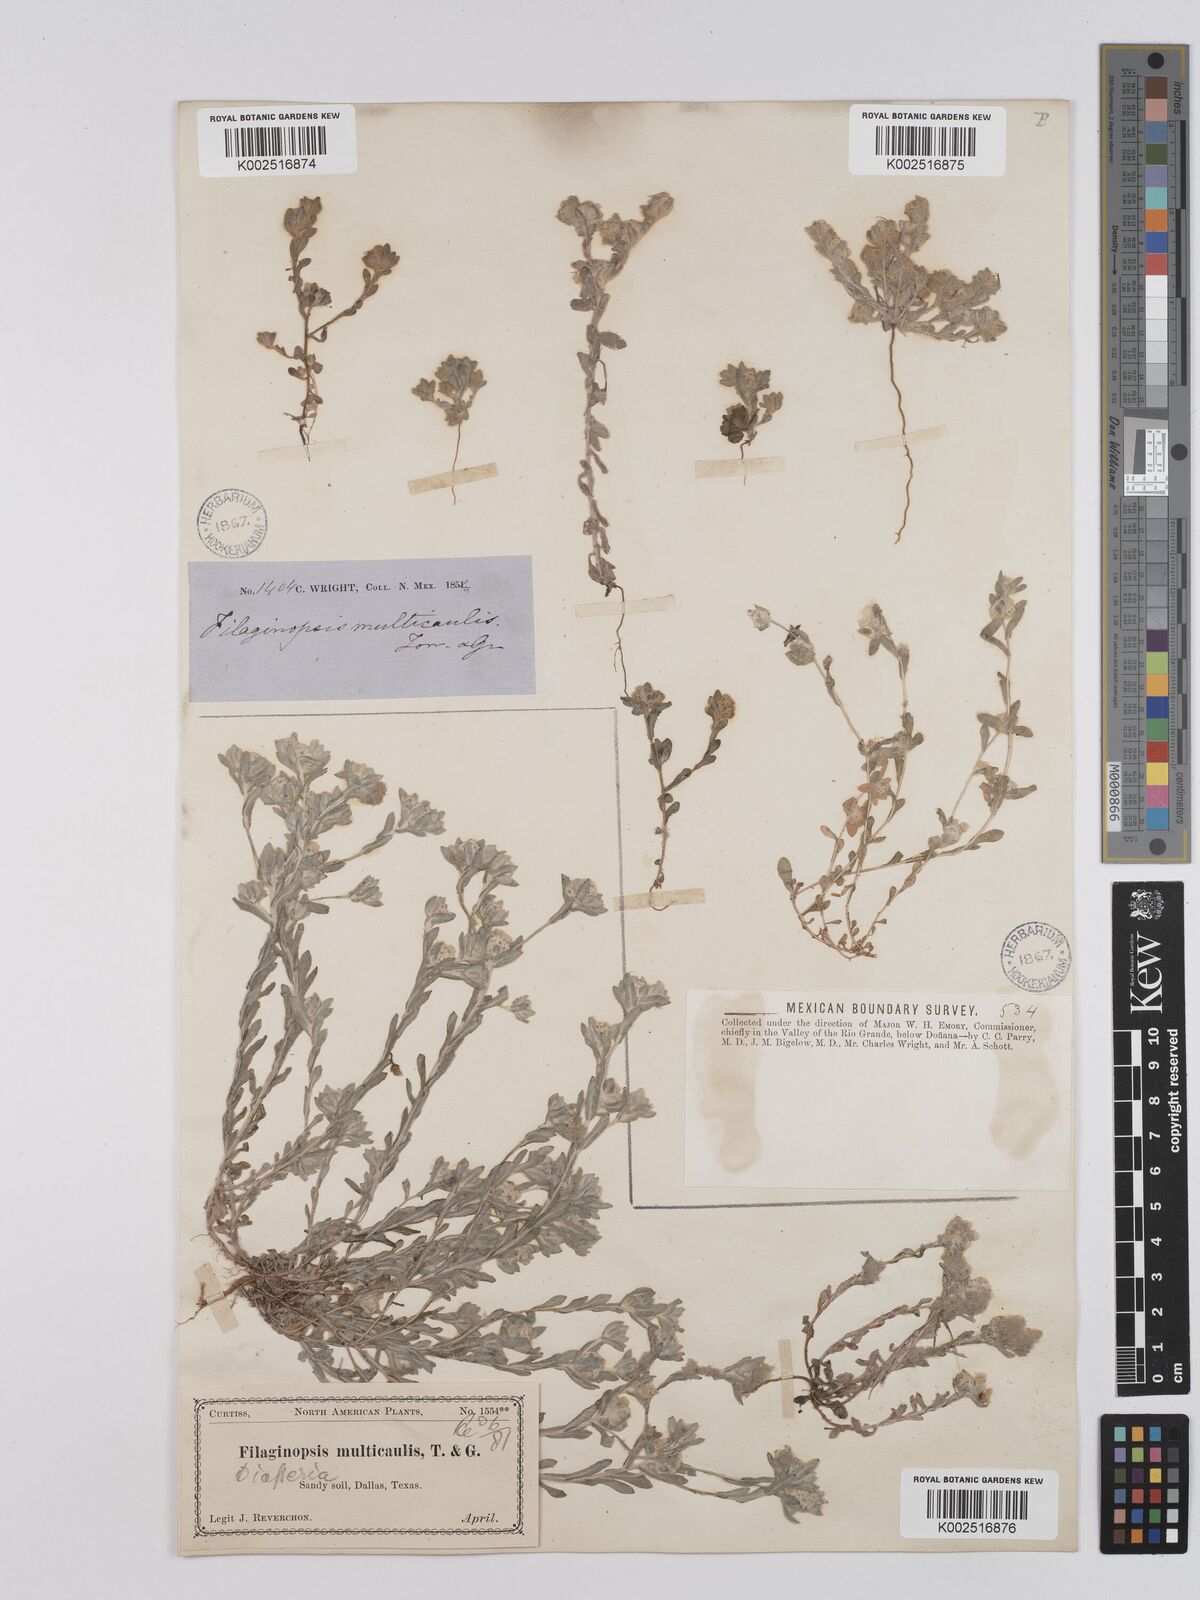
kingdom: Plantae
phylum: Tracheophyta
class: Magnoliopsida
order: Asterales
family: Asteraceae
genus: Filago
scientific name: Filago
